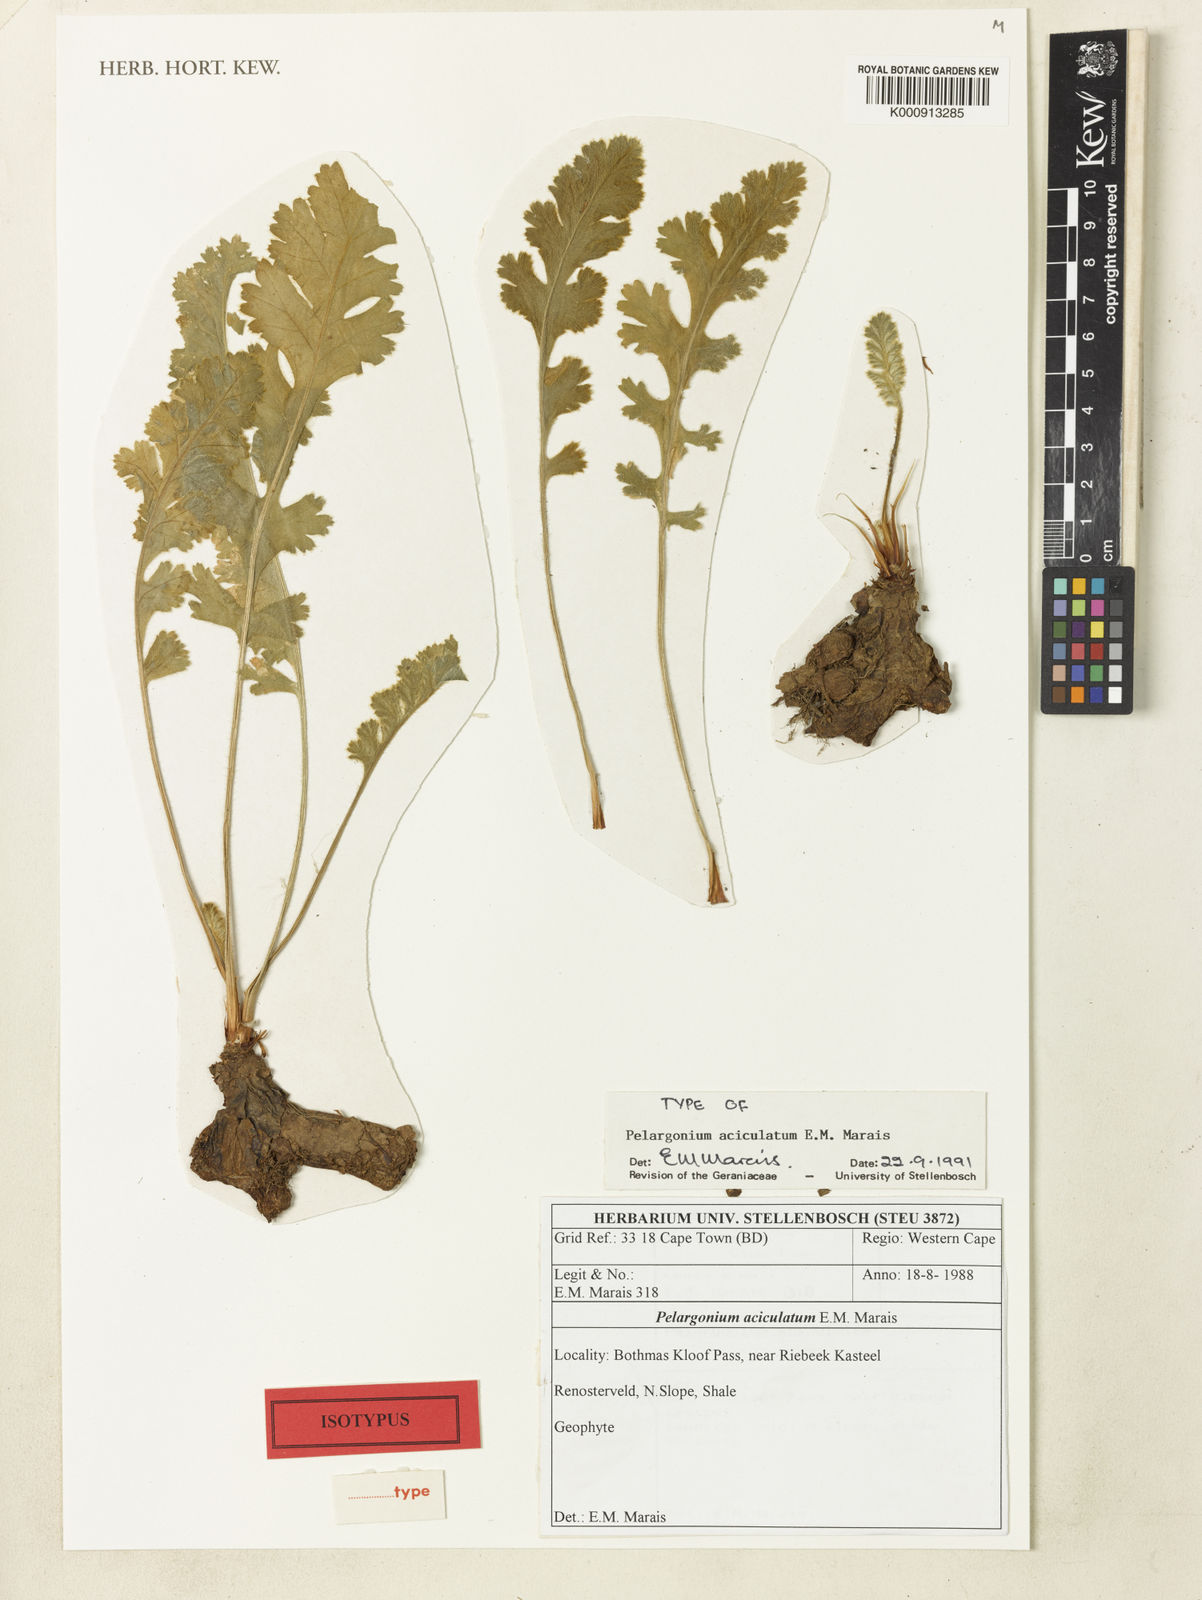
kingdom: Plantae
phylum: Tracheophyta
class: Magnoliopsida
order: Geraniales
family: Geraniaceae
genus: Pelargonium
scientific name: Pelargonium aciculatum
